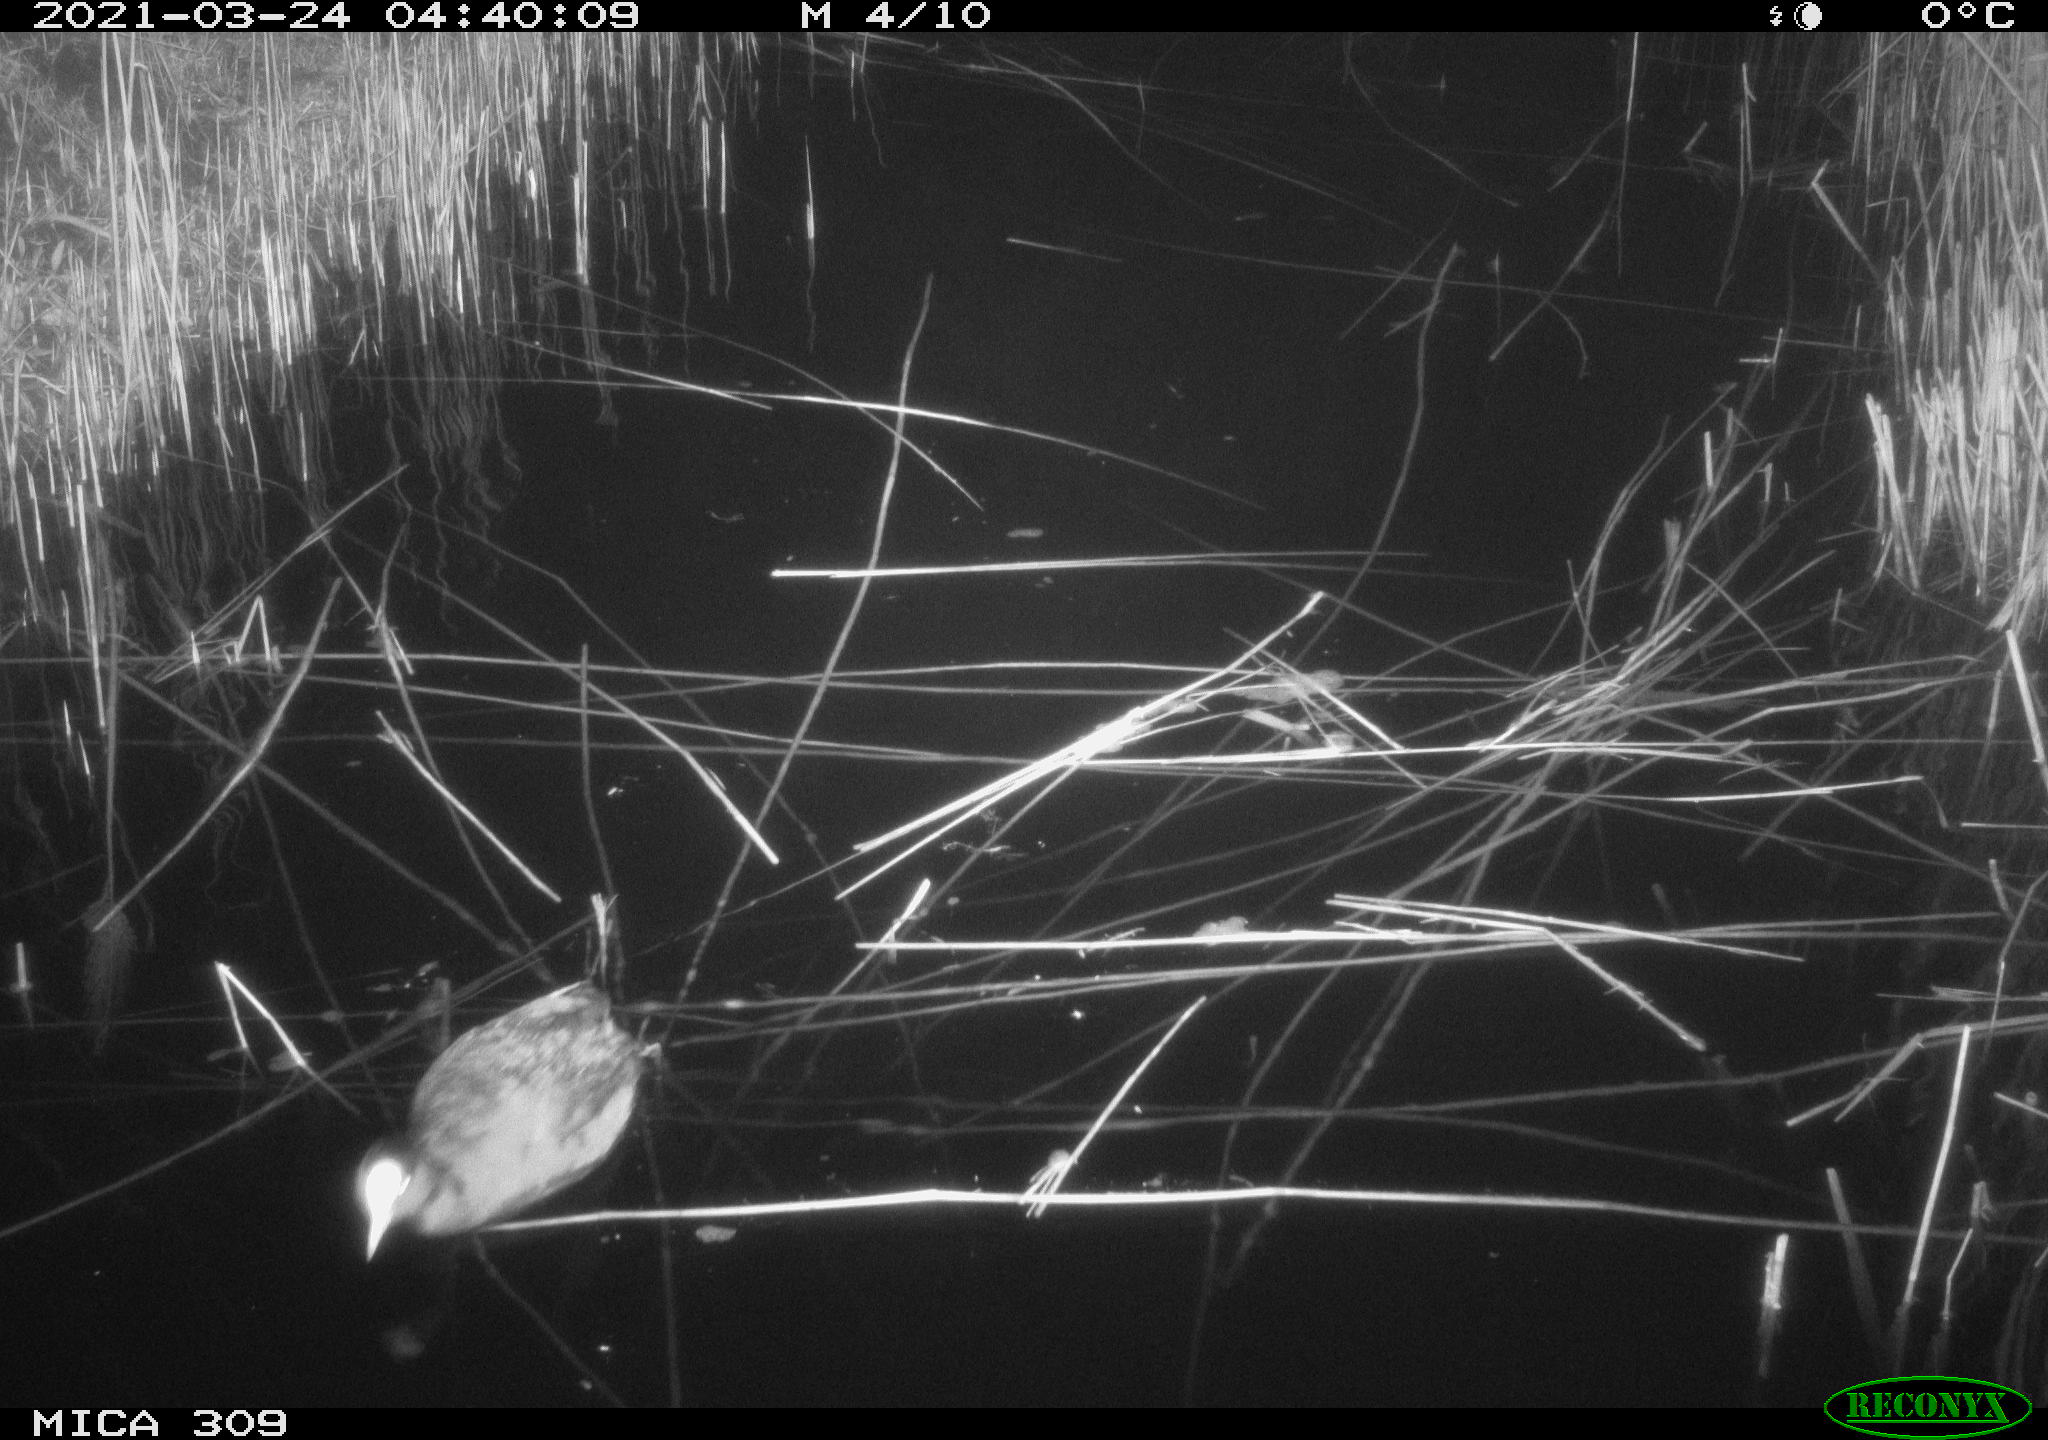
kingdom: Animalia
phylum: Chordata
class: Aves
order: Gruiformes
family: Rallidae
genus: Fulica
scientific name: Fulica atra
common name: Eurasian coot
